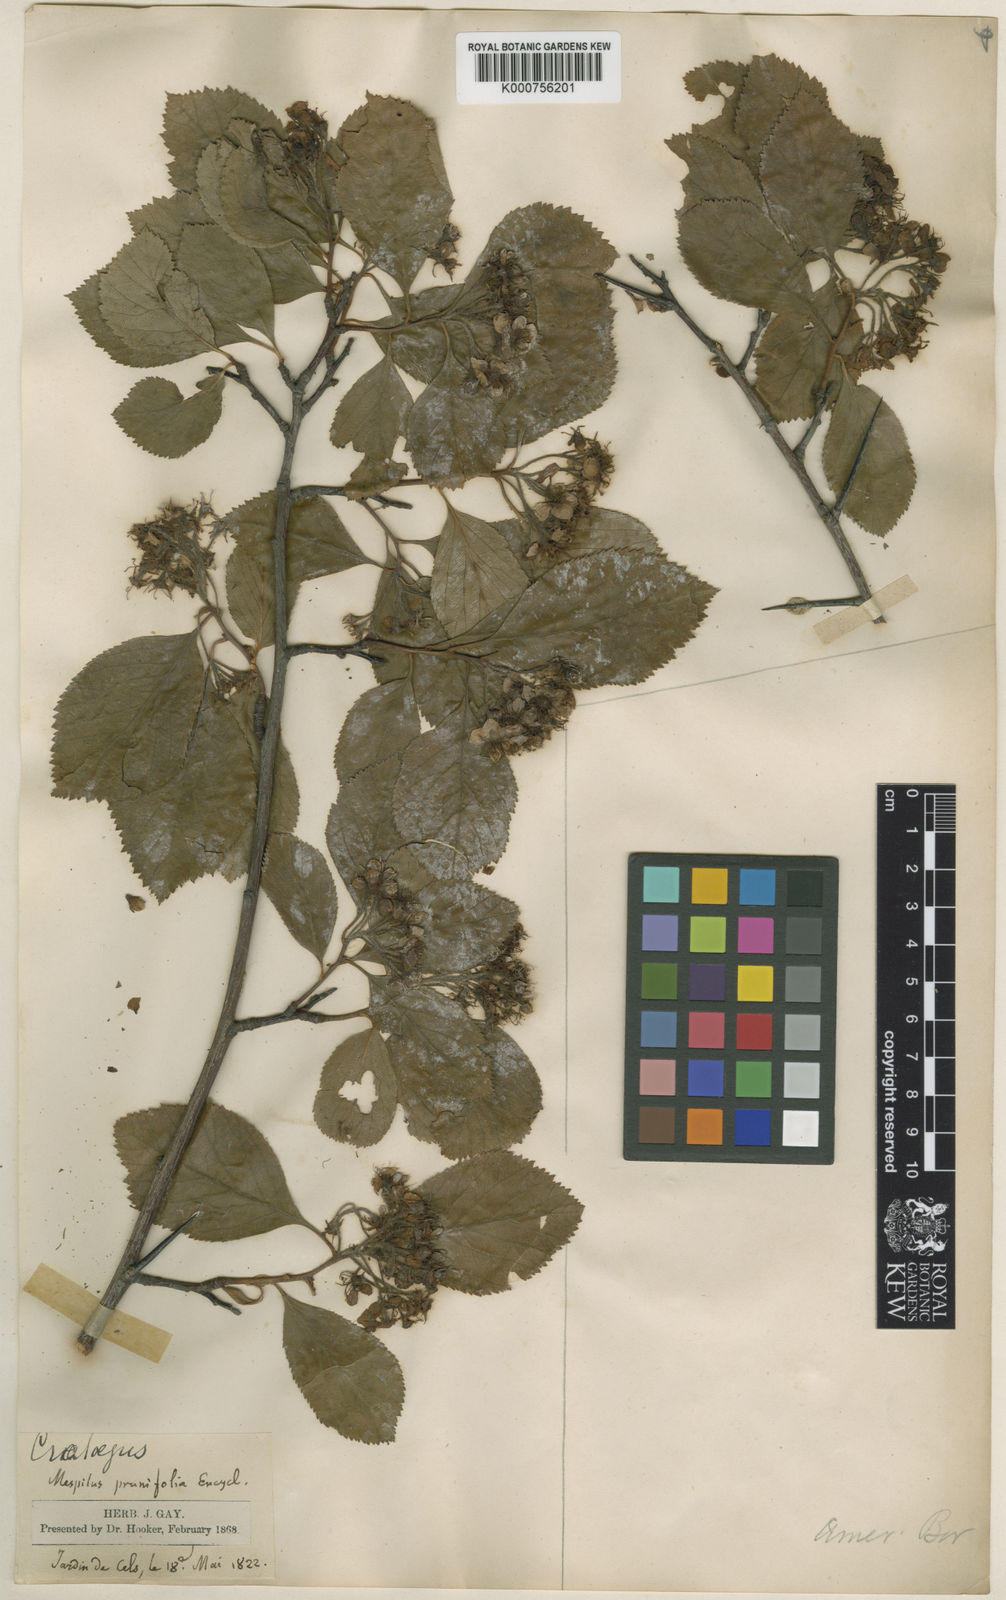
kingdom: Plantae
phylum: Tracheophyta
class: Magnoliopsida
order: Rosales
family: Rosaceae
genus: Aronia
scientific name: Aronia prunifolia
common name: Purple chokeberry
